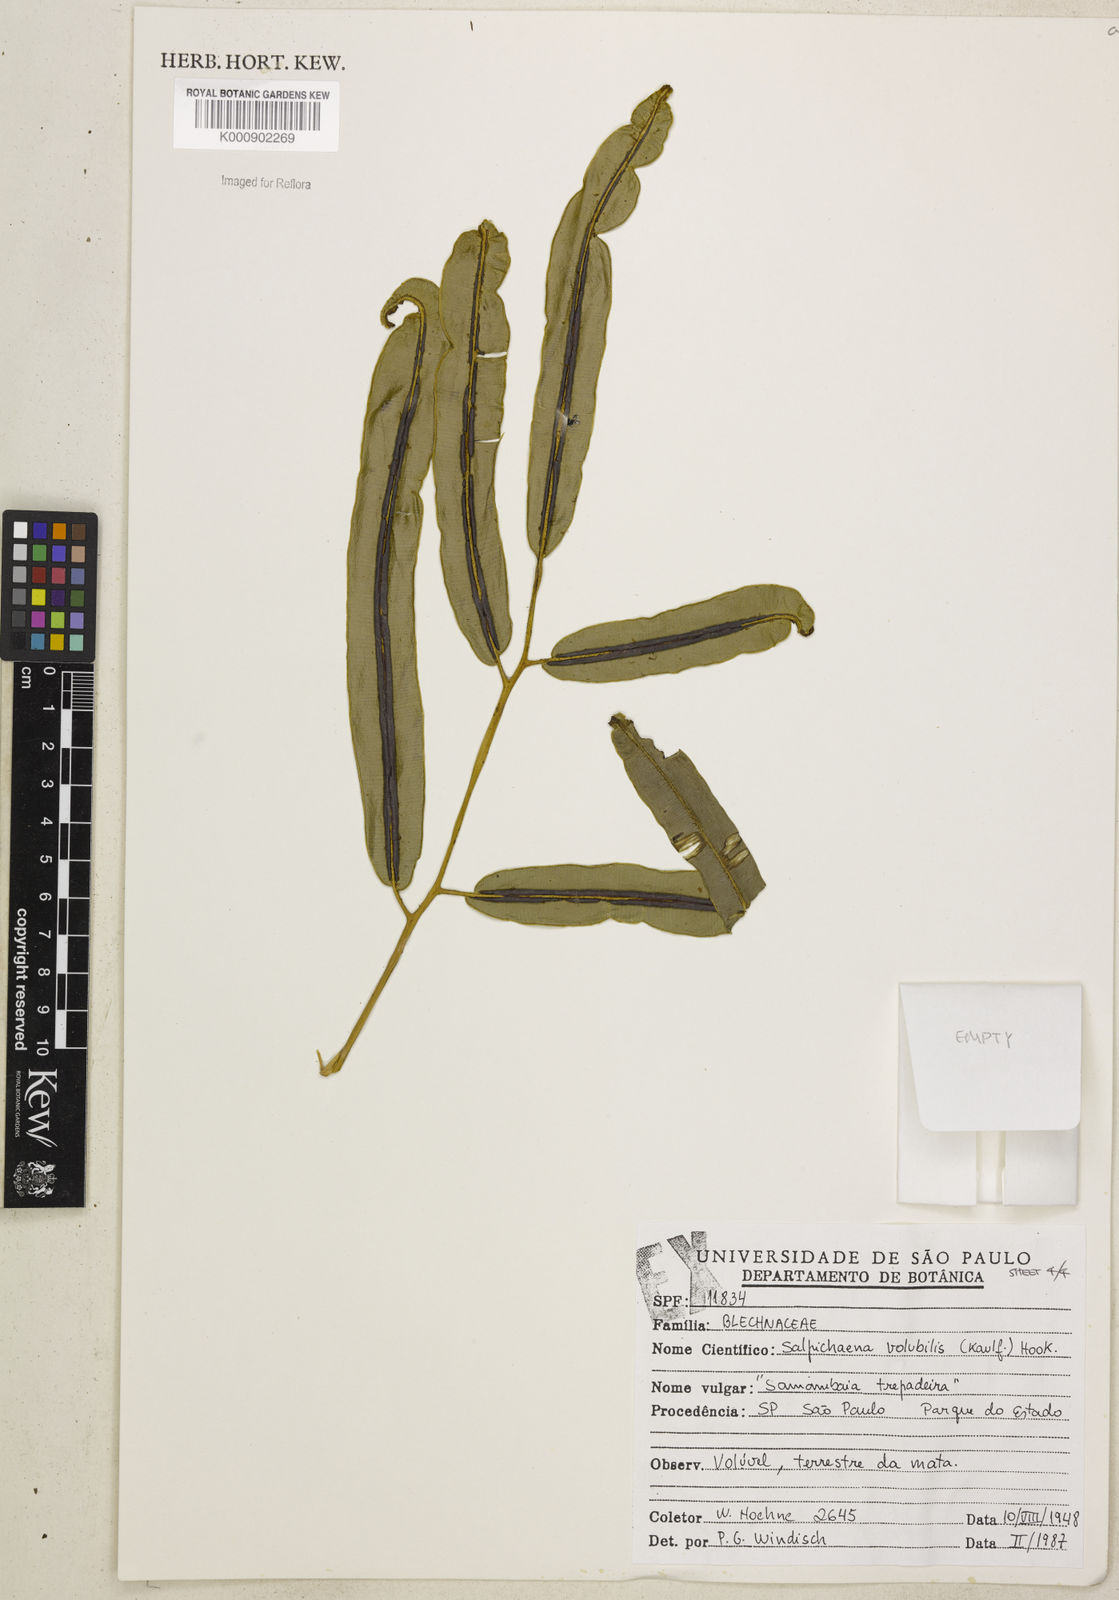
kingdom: Plantae
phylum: Tracheophyta
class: Polypodiopsida
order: Polypodiales
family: Blechnaceae
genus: Salpichlaena
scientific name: Salpichlaena volubilis
